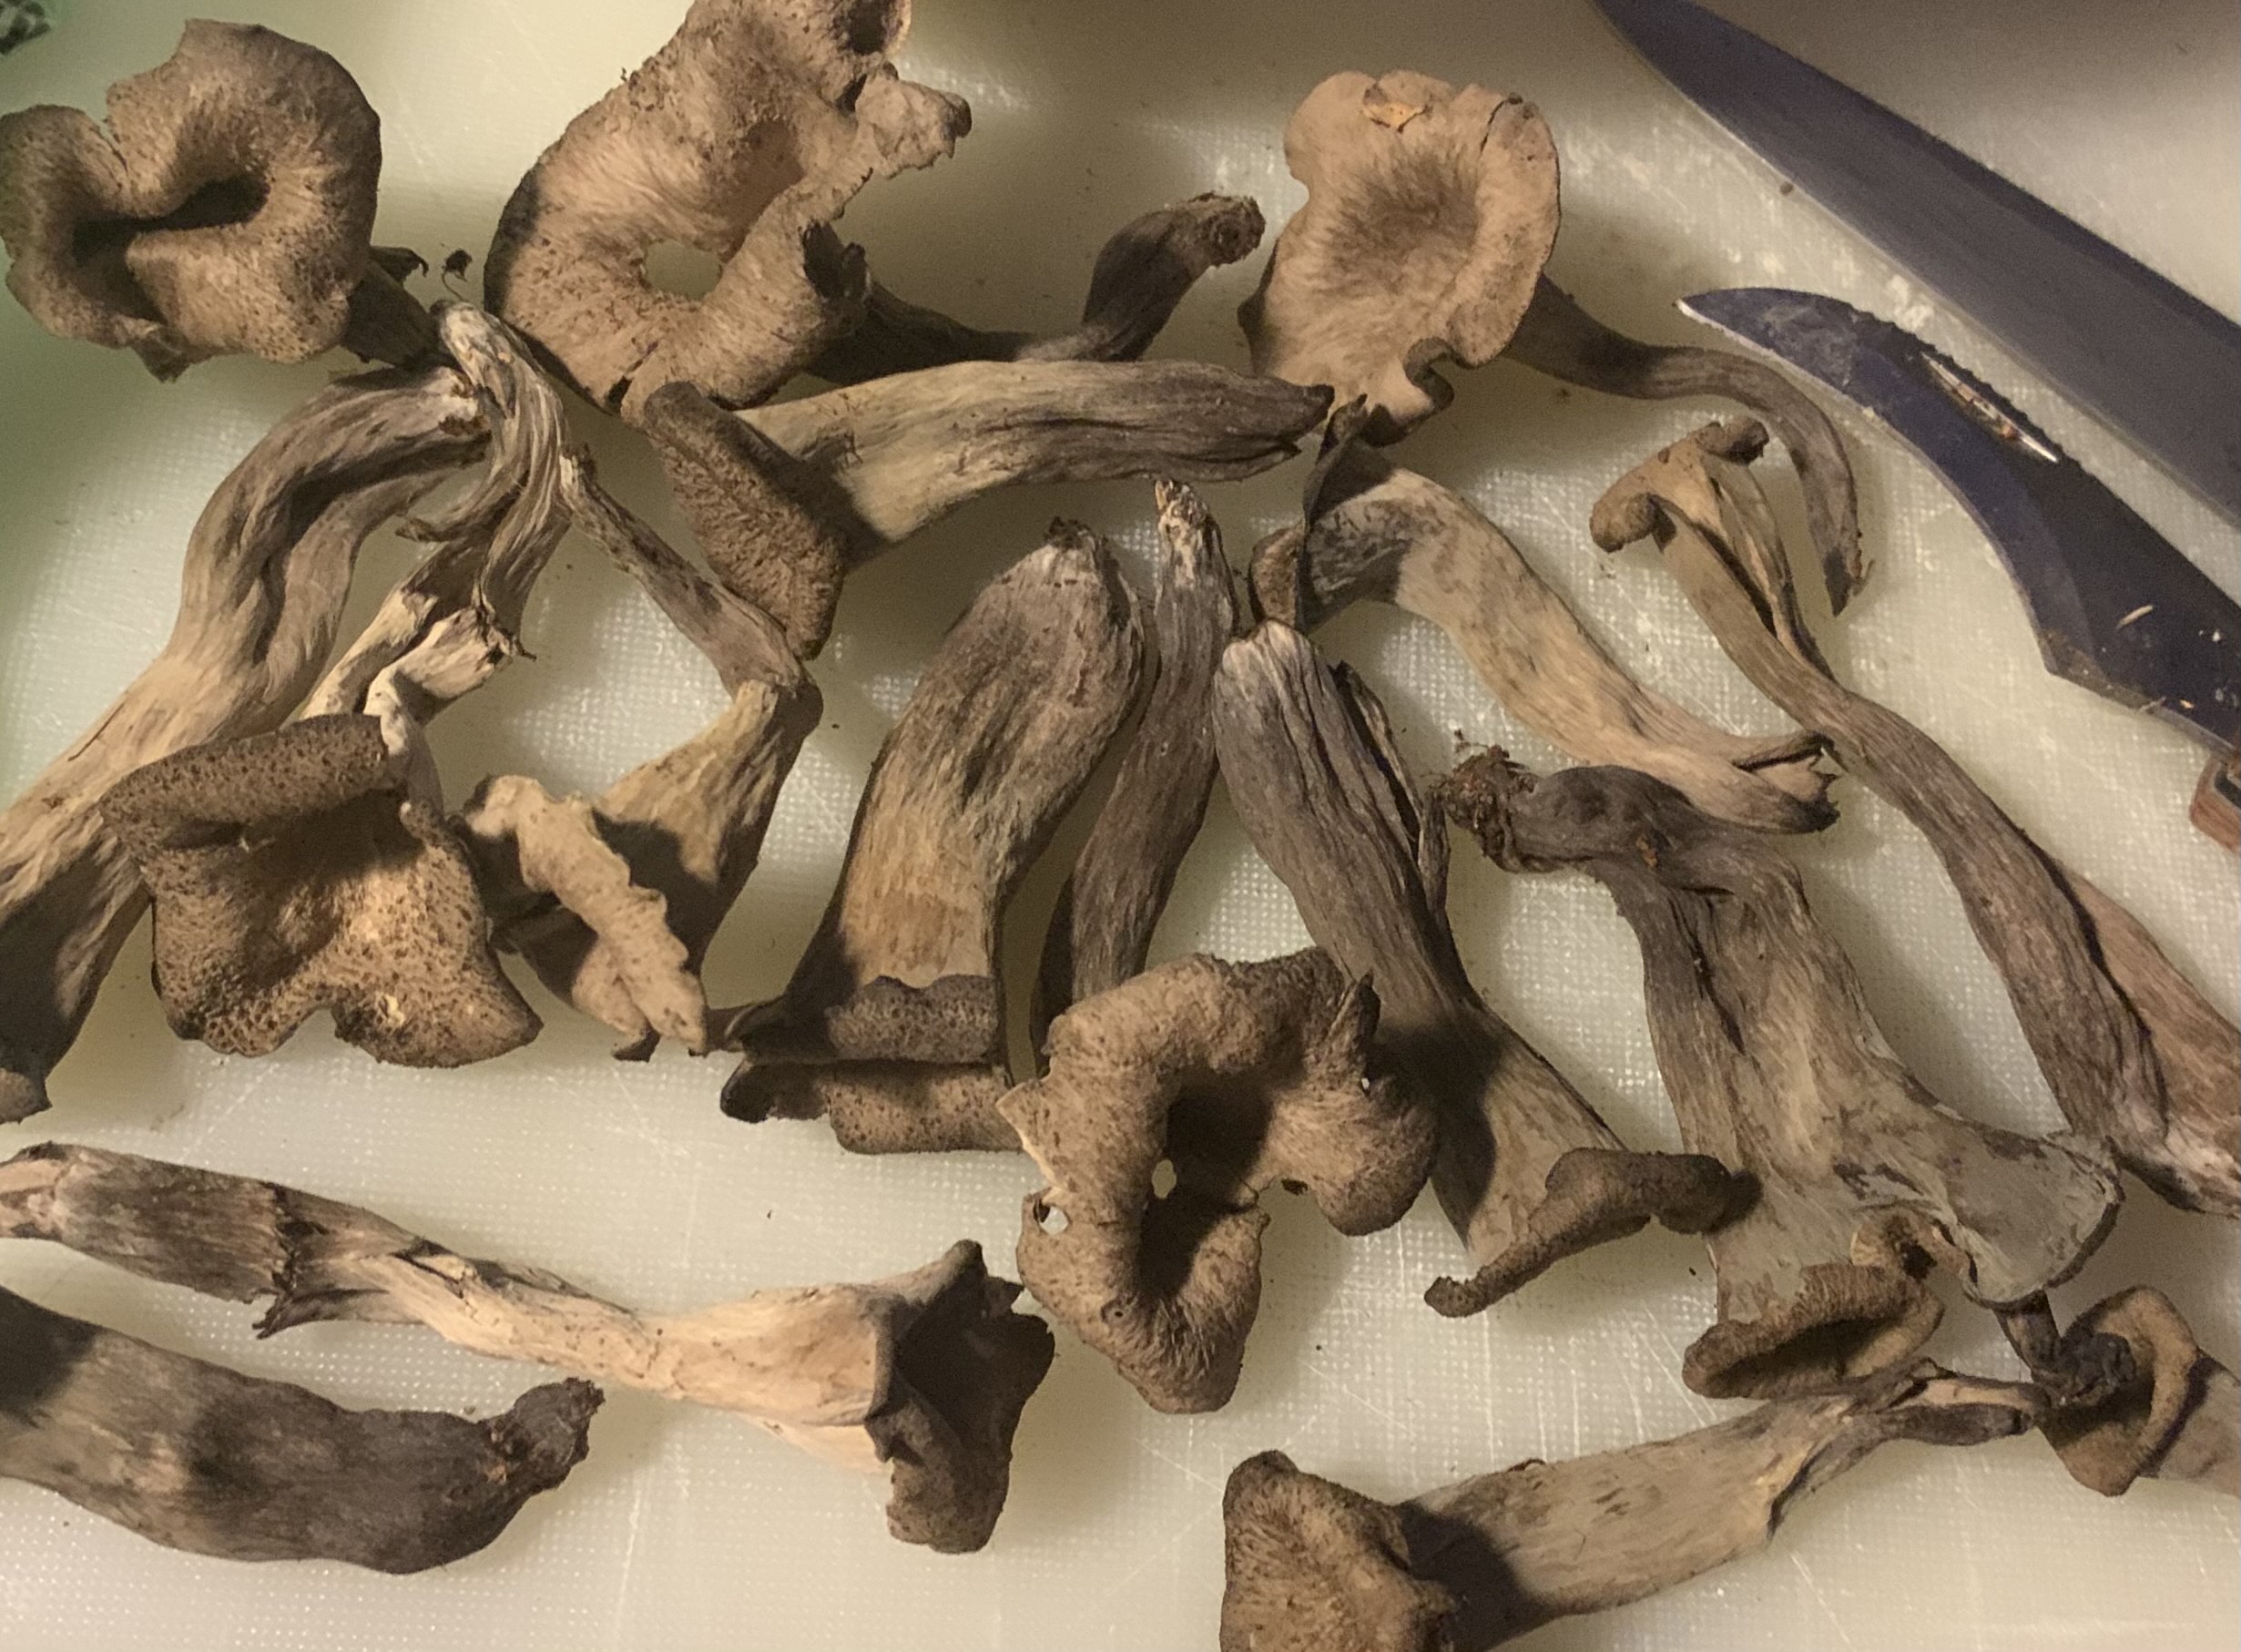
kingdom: Fungi
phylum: Basidiomycota
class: Agaricomycetes
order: Cantharellales
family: Hydnaceae
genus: Craterellus
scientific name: Craterellus cornucopioides
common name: trompetsvamp
